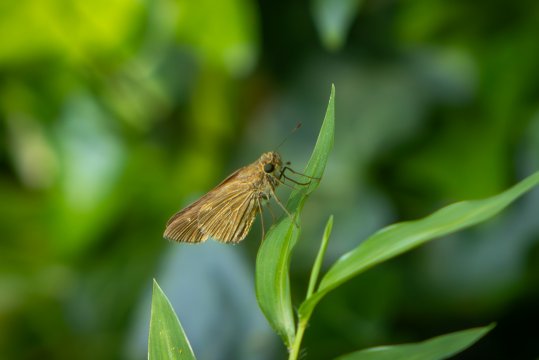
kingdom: Animalia
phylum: Arthropoda
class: Insecta
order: Lepidoptera
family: Hesperiidae
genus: Panoquina
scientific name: Panoquina ocola
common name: Ocola Skipper
